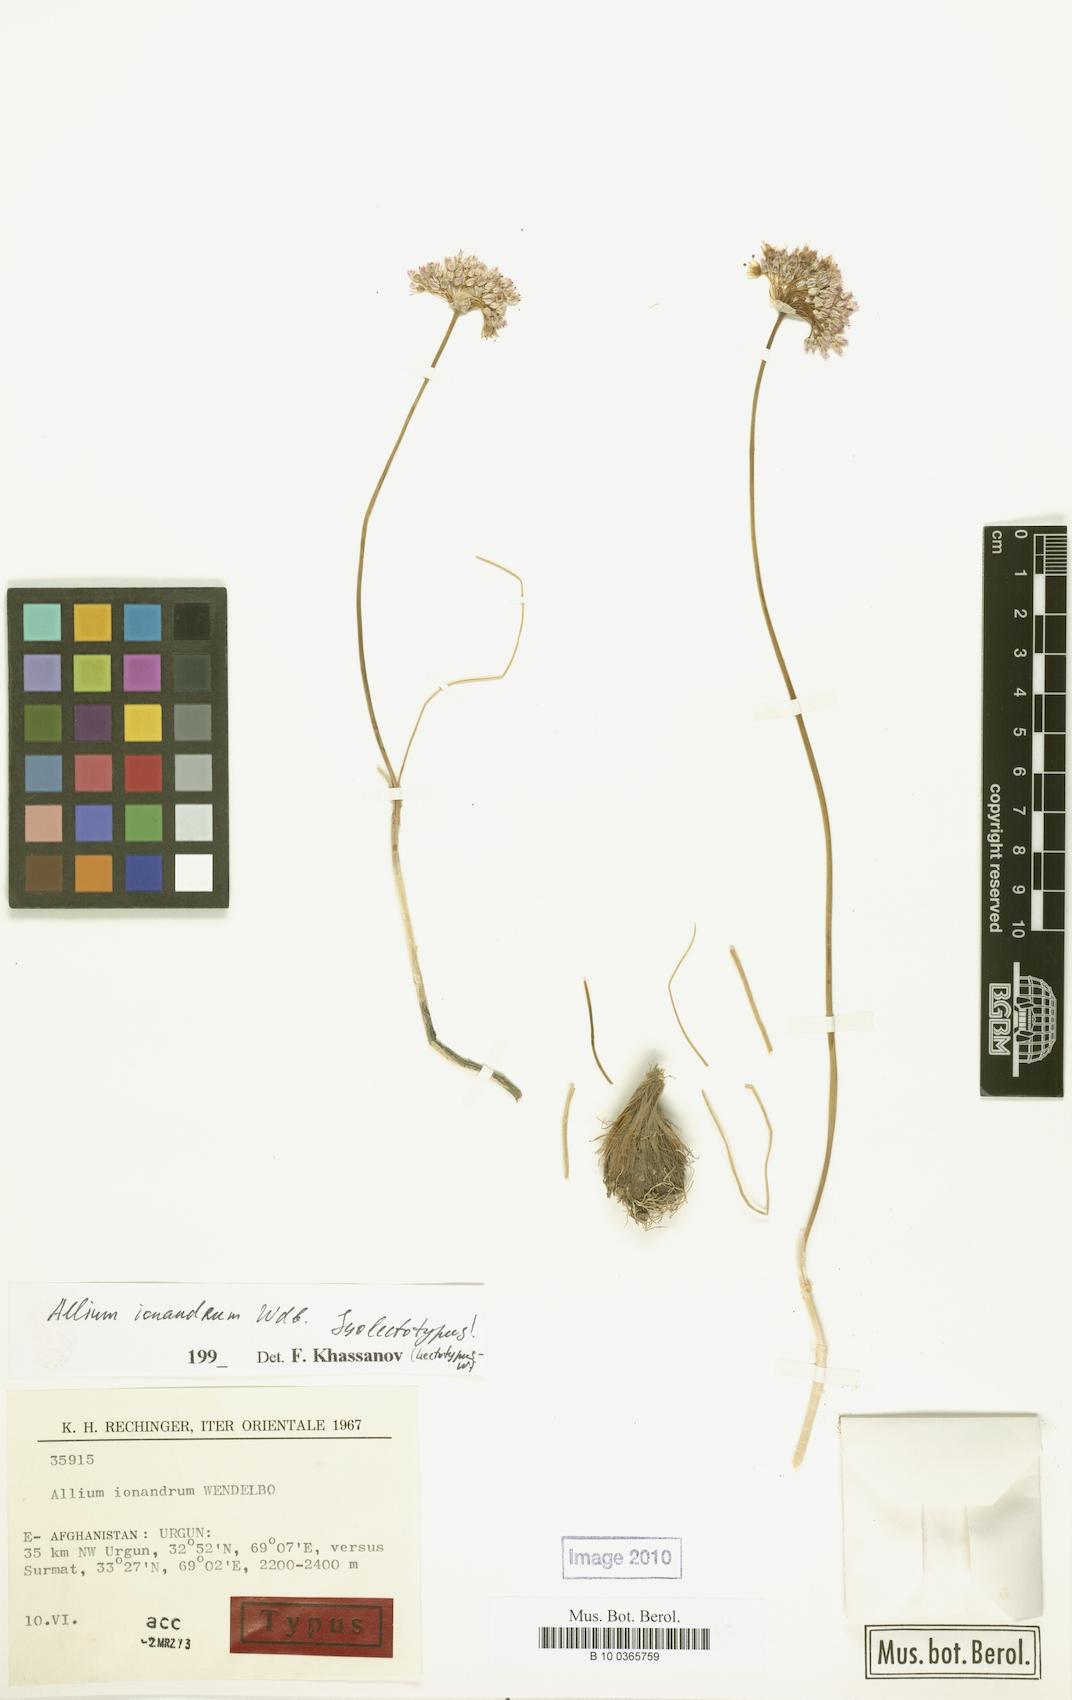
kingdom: Plantae
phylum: Tracheophyta
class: Liliopsida
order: Asparagales
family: Amaryllidaceae
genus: Allium
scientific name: Allium ionandrum
